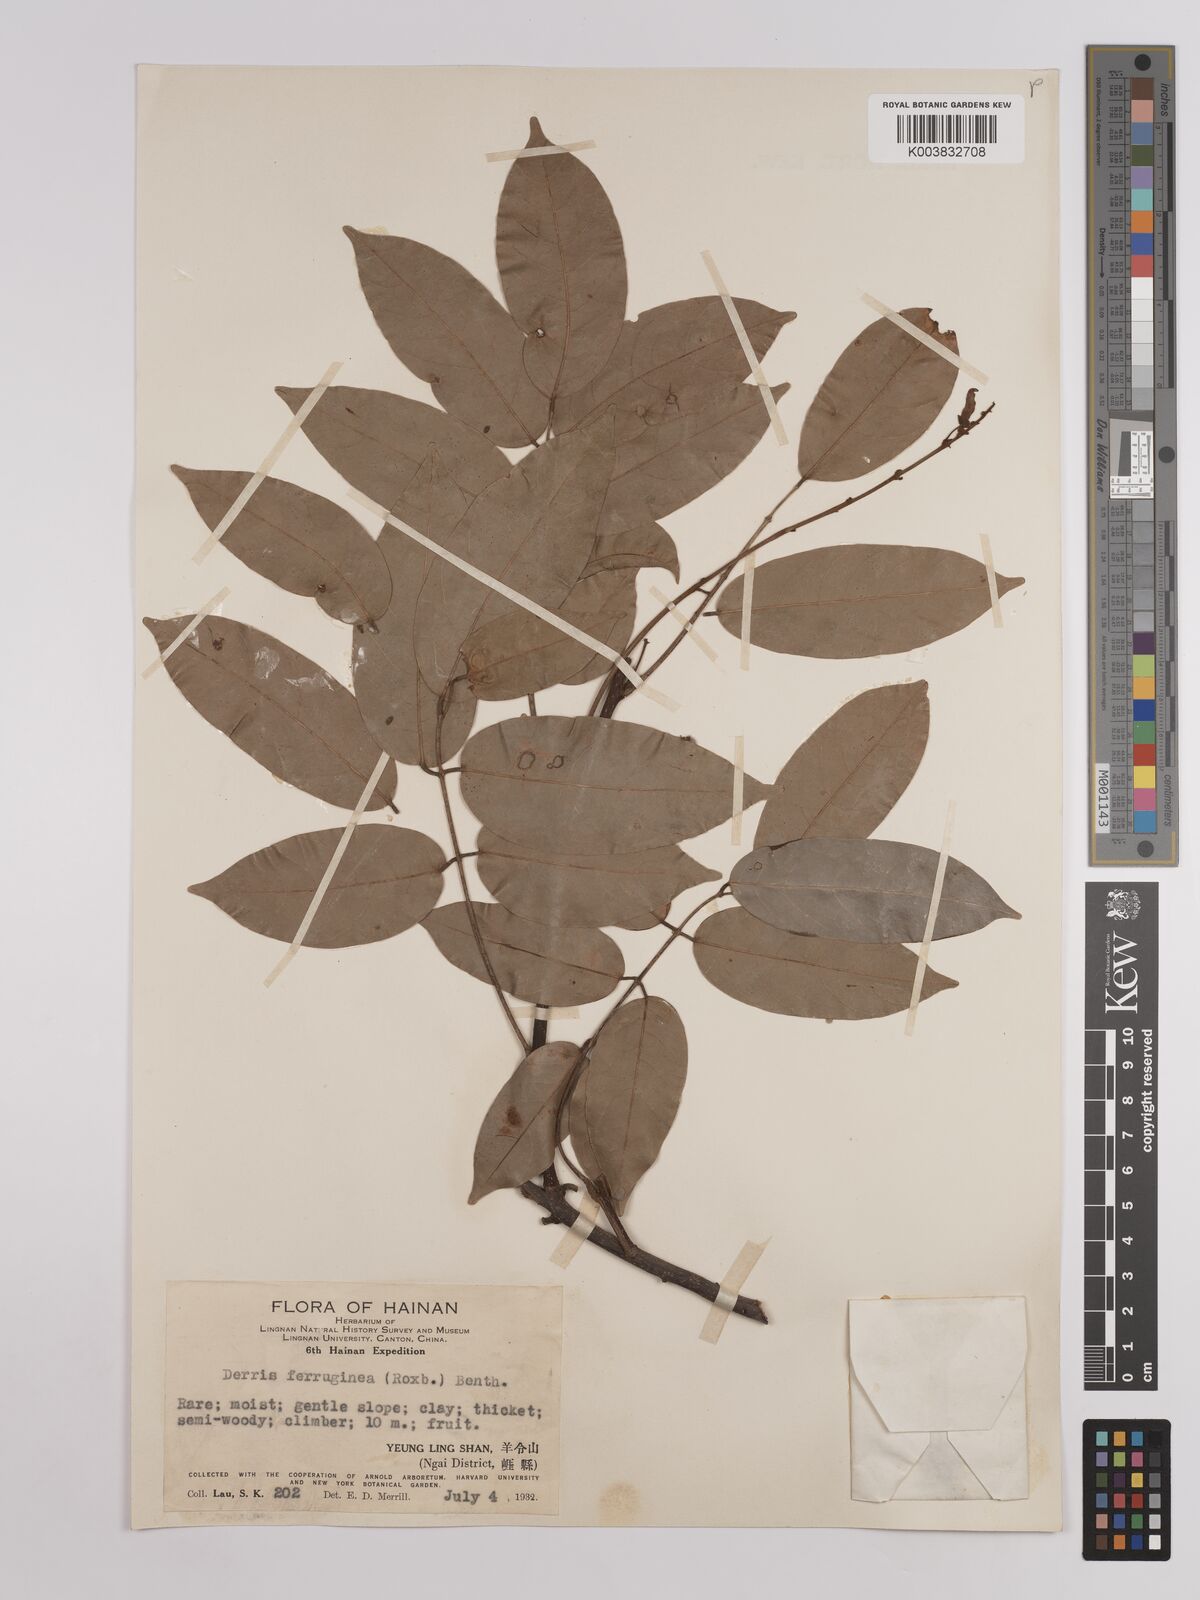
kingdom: Plantae
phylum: Tracheophyta
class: Magnoliopsida
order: Fabales
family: Fabaceae
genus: Derris
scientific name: Derris ferruginea
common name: Indian tubaroot
